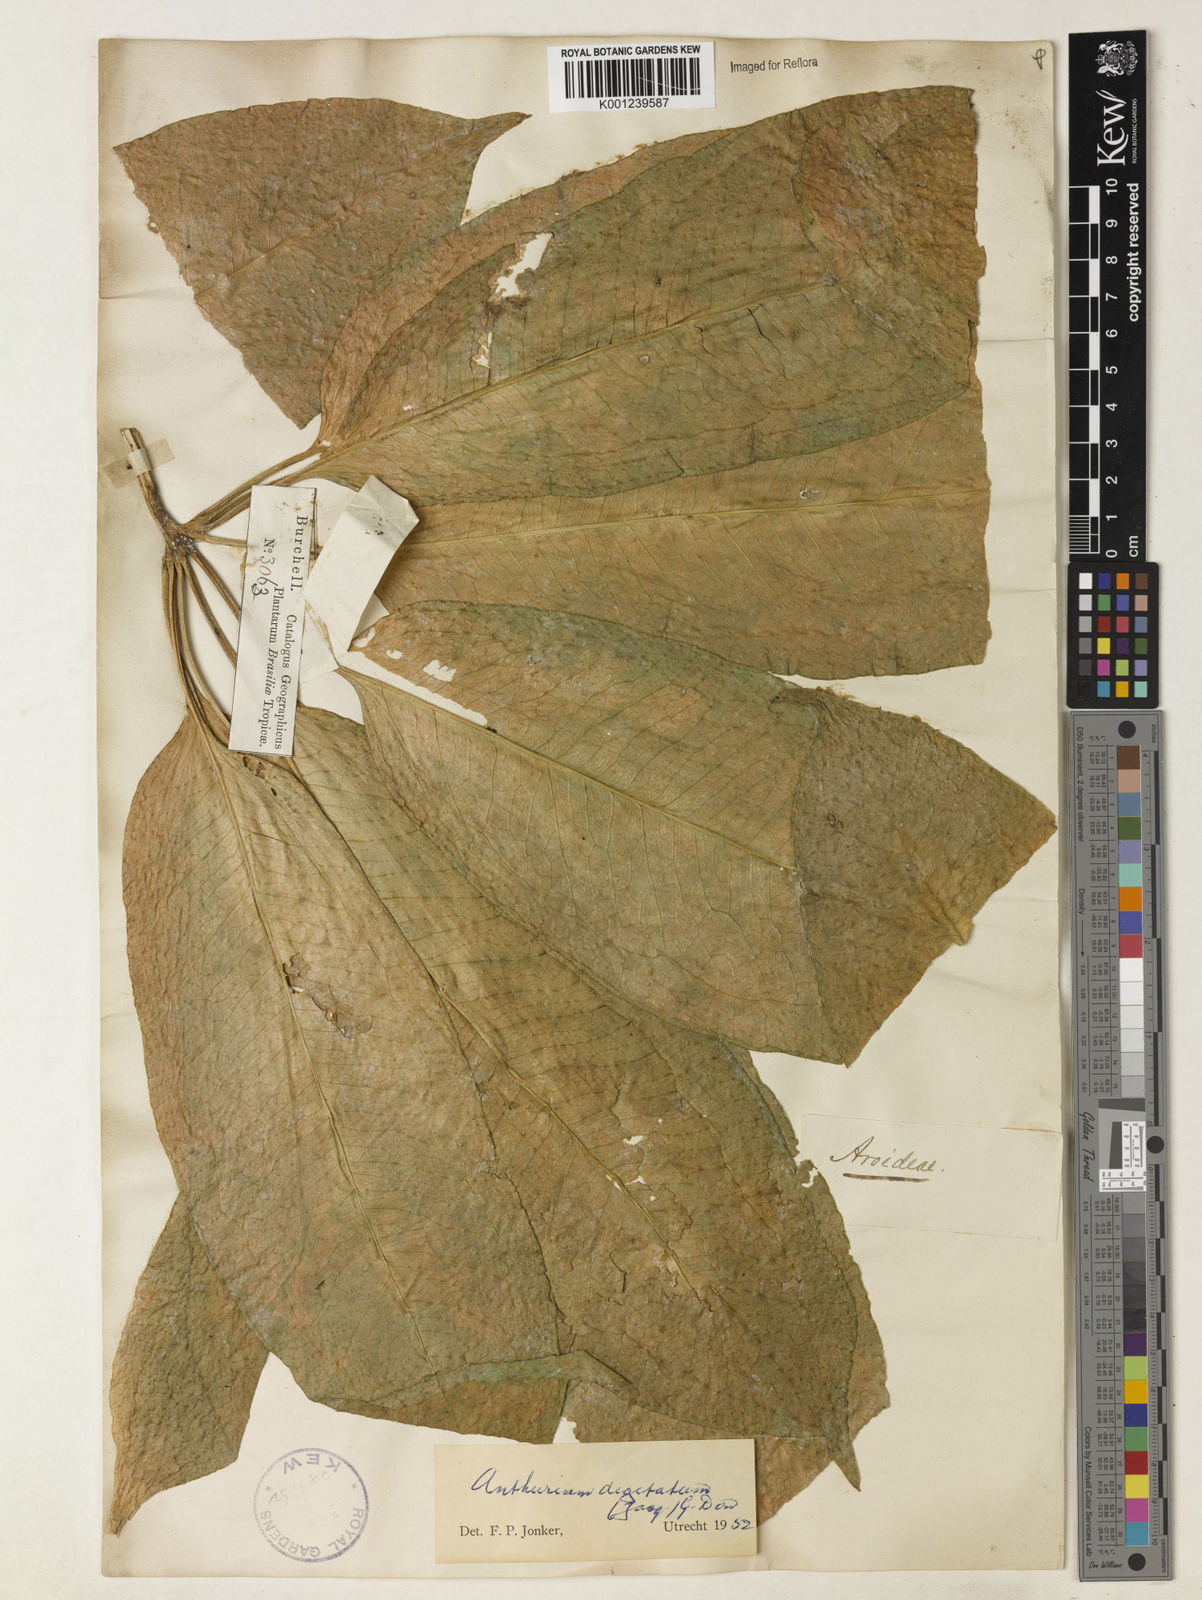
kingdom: Plantae
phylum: Tracheophyta
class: Liliopsida
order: Alismatales
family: Araceae
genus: Anthurium
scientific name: Anthurium pentaphyllum
